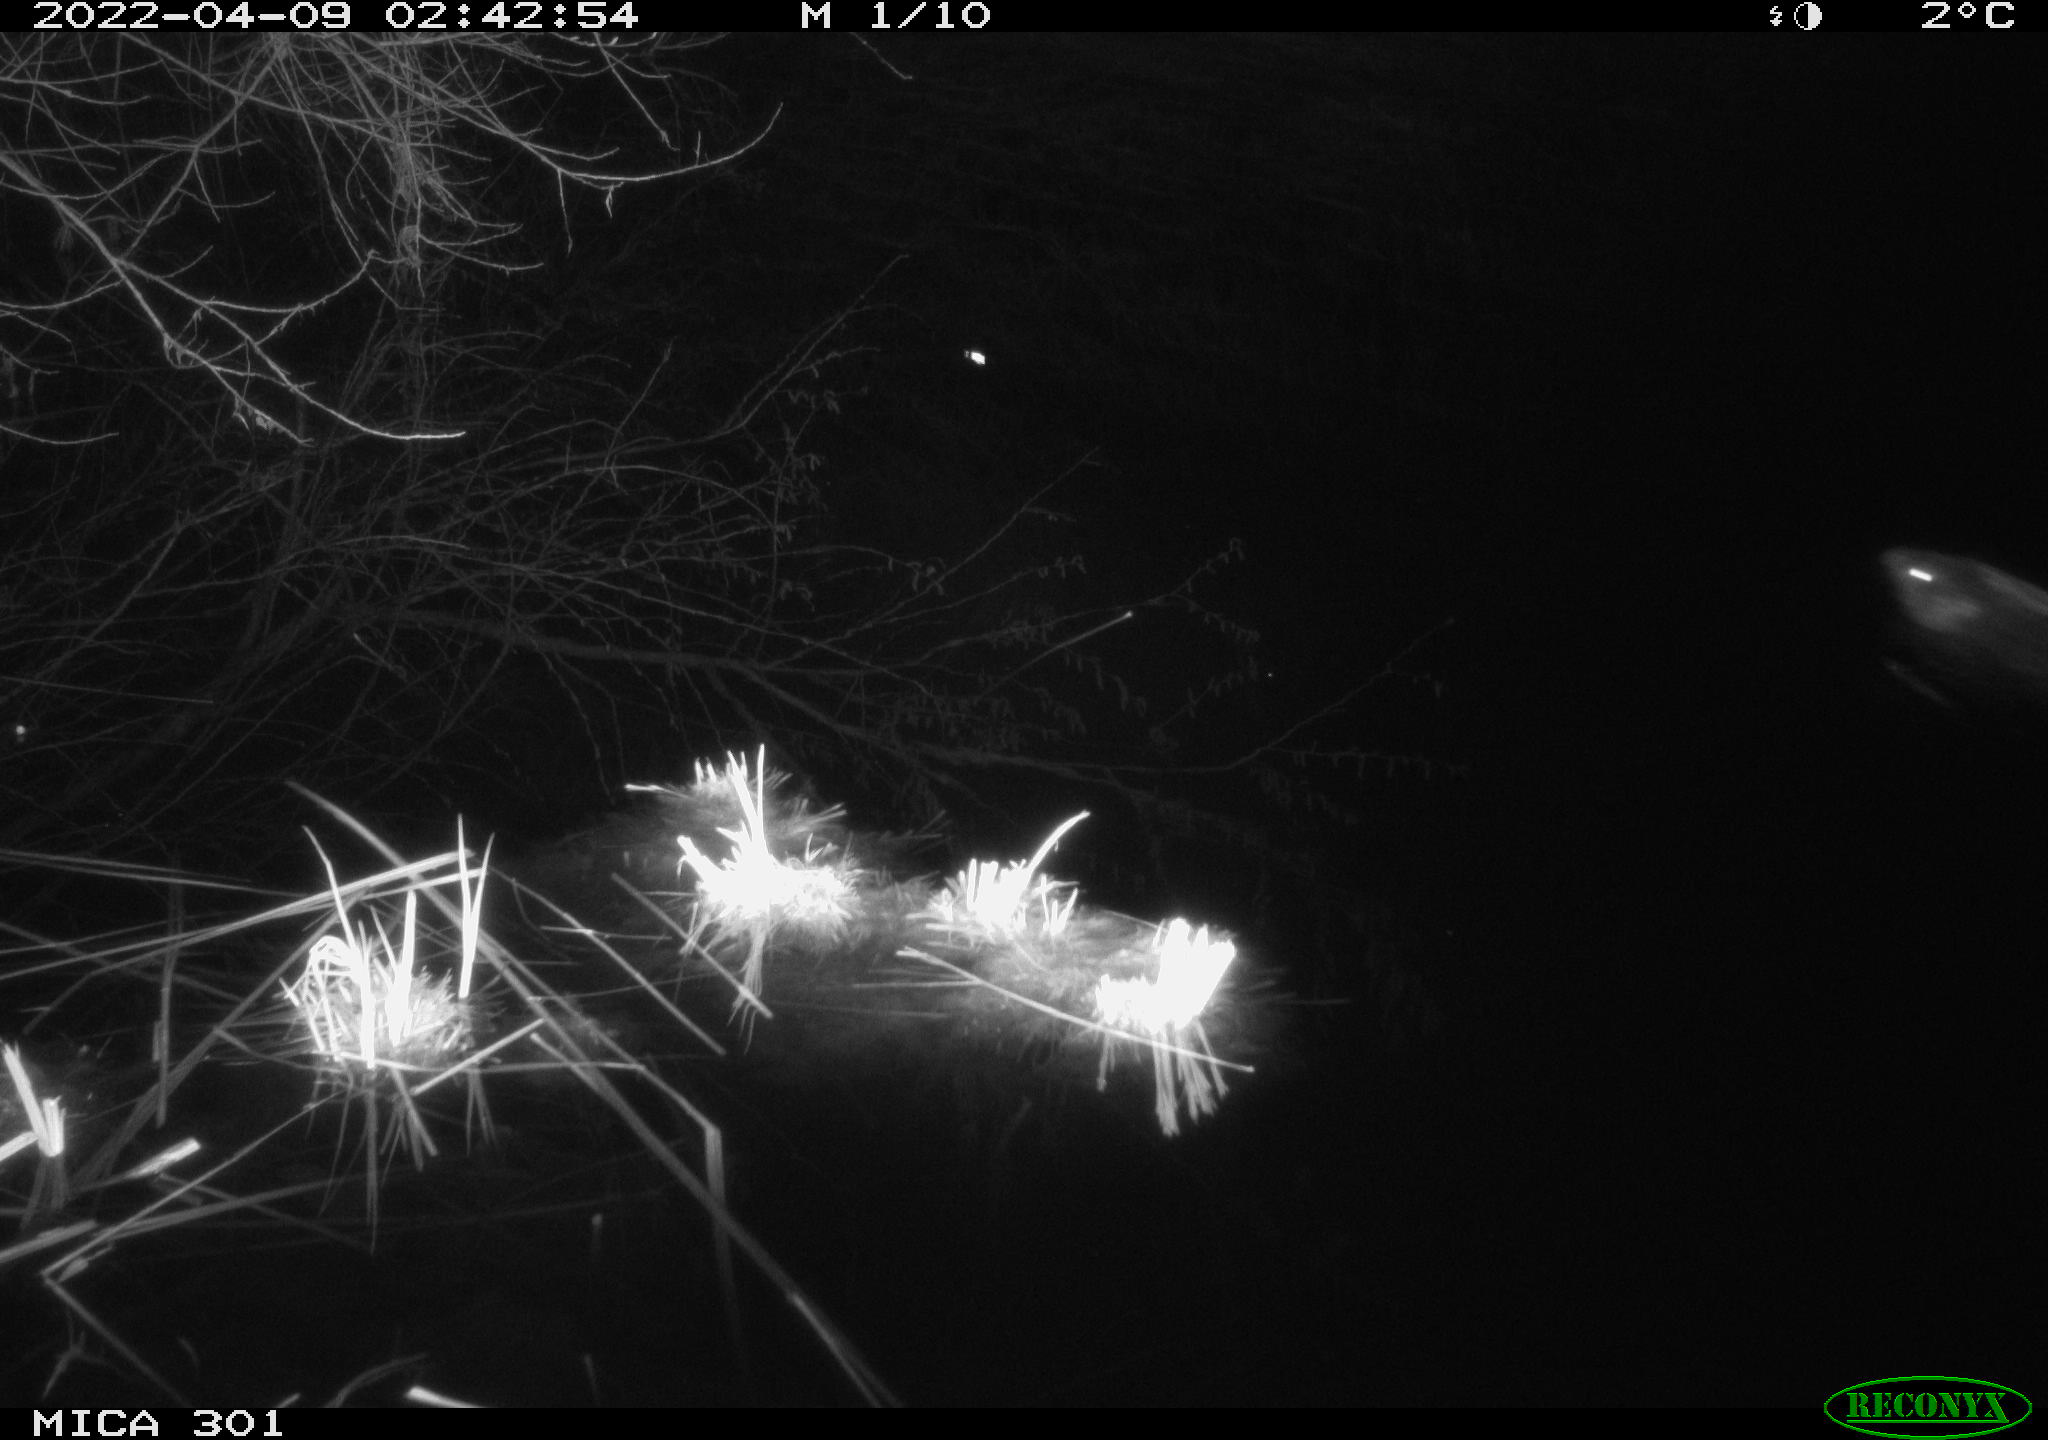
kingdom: Animalia
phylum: Chordata
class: Mammalia
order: Rodentia
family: Castoridae
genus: Castor
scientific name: Castor fiber
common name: Eurasian beaver
